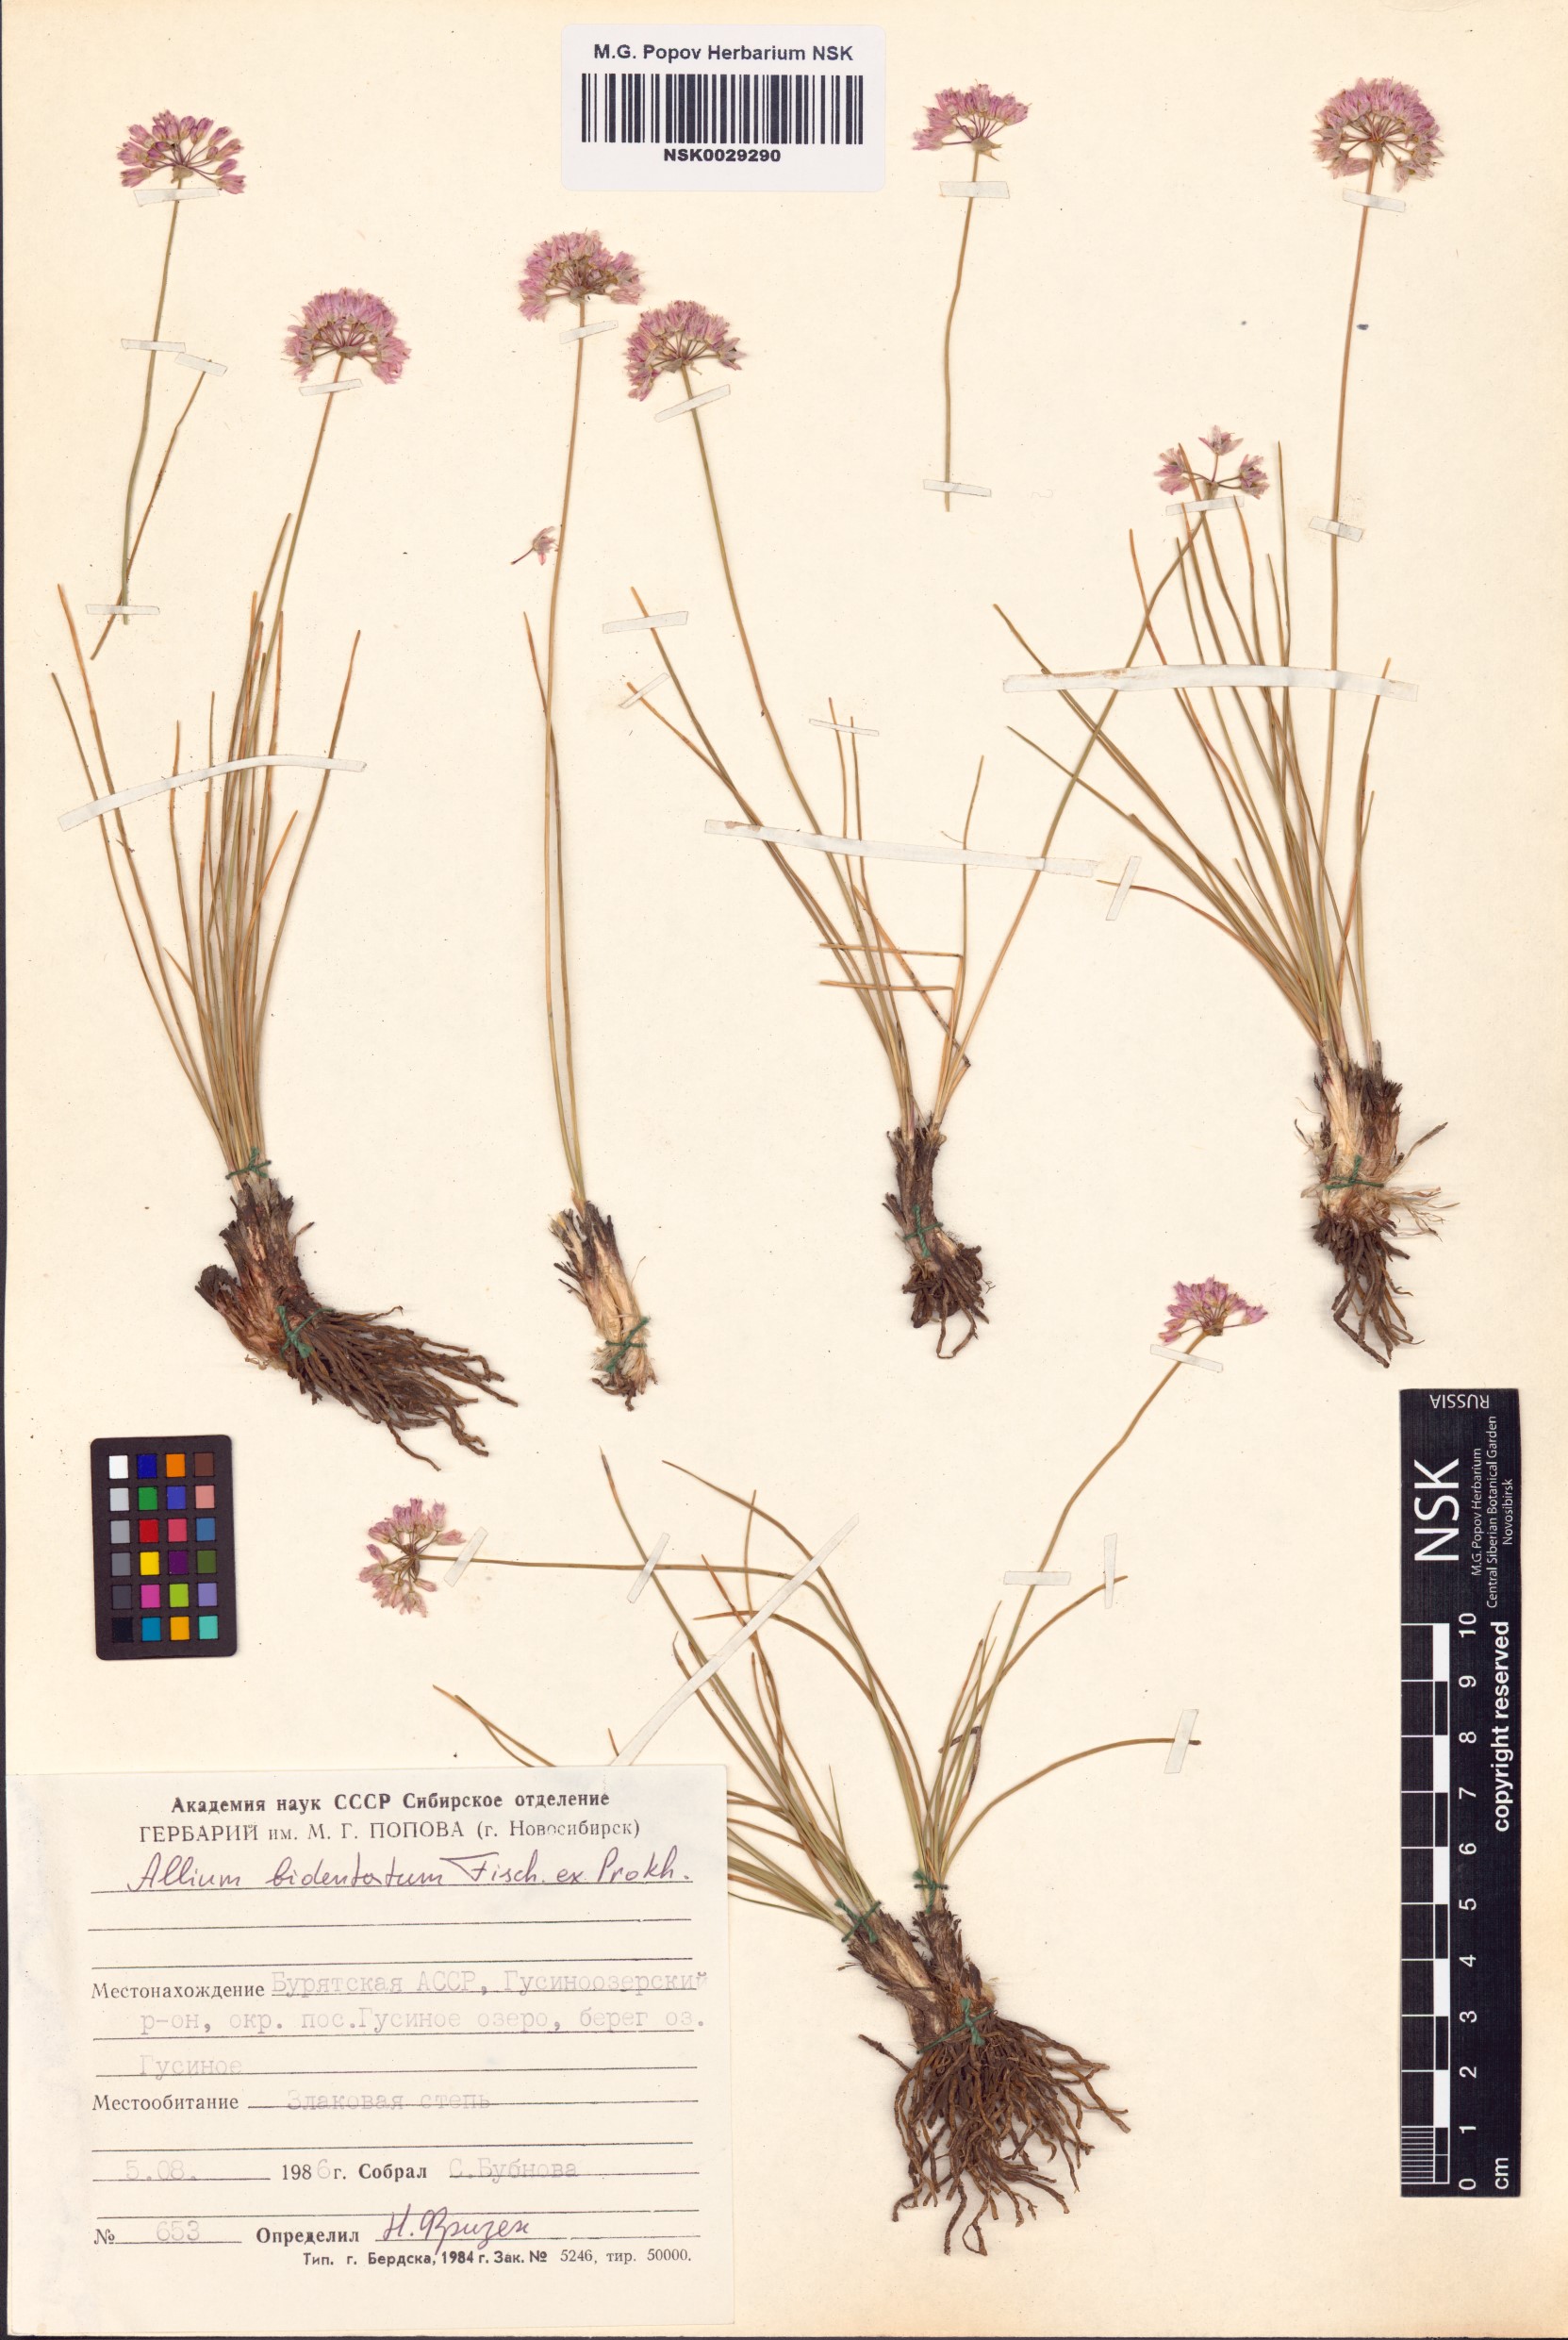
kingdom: Plantae
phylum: Tracheophyta
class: Liliopsida
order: Asparagales
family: Amaryllidaceae
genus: Allium
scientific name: Allium bidentatum
